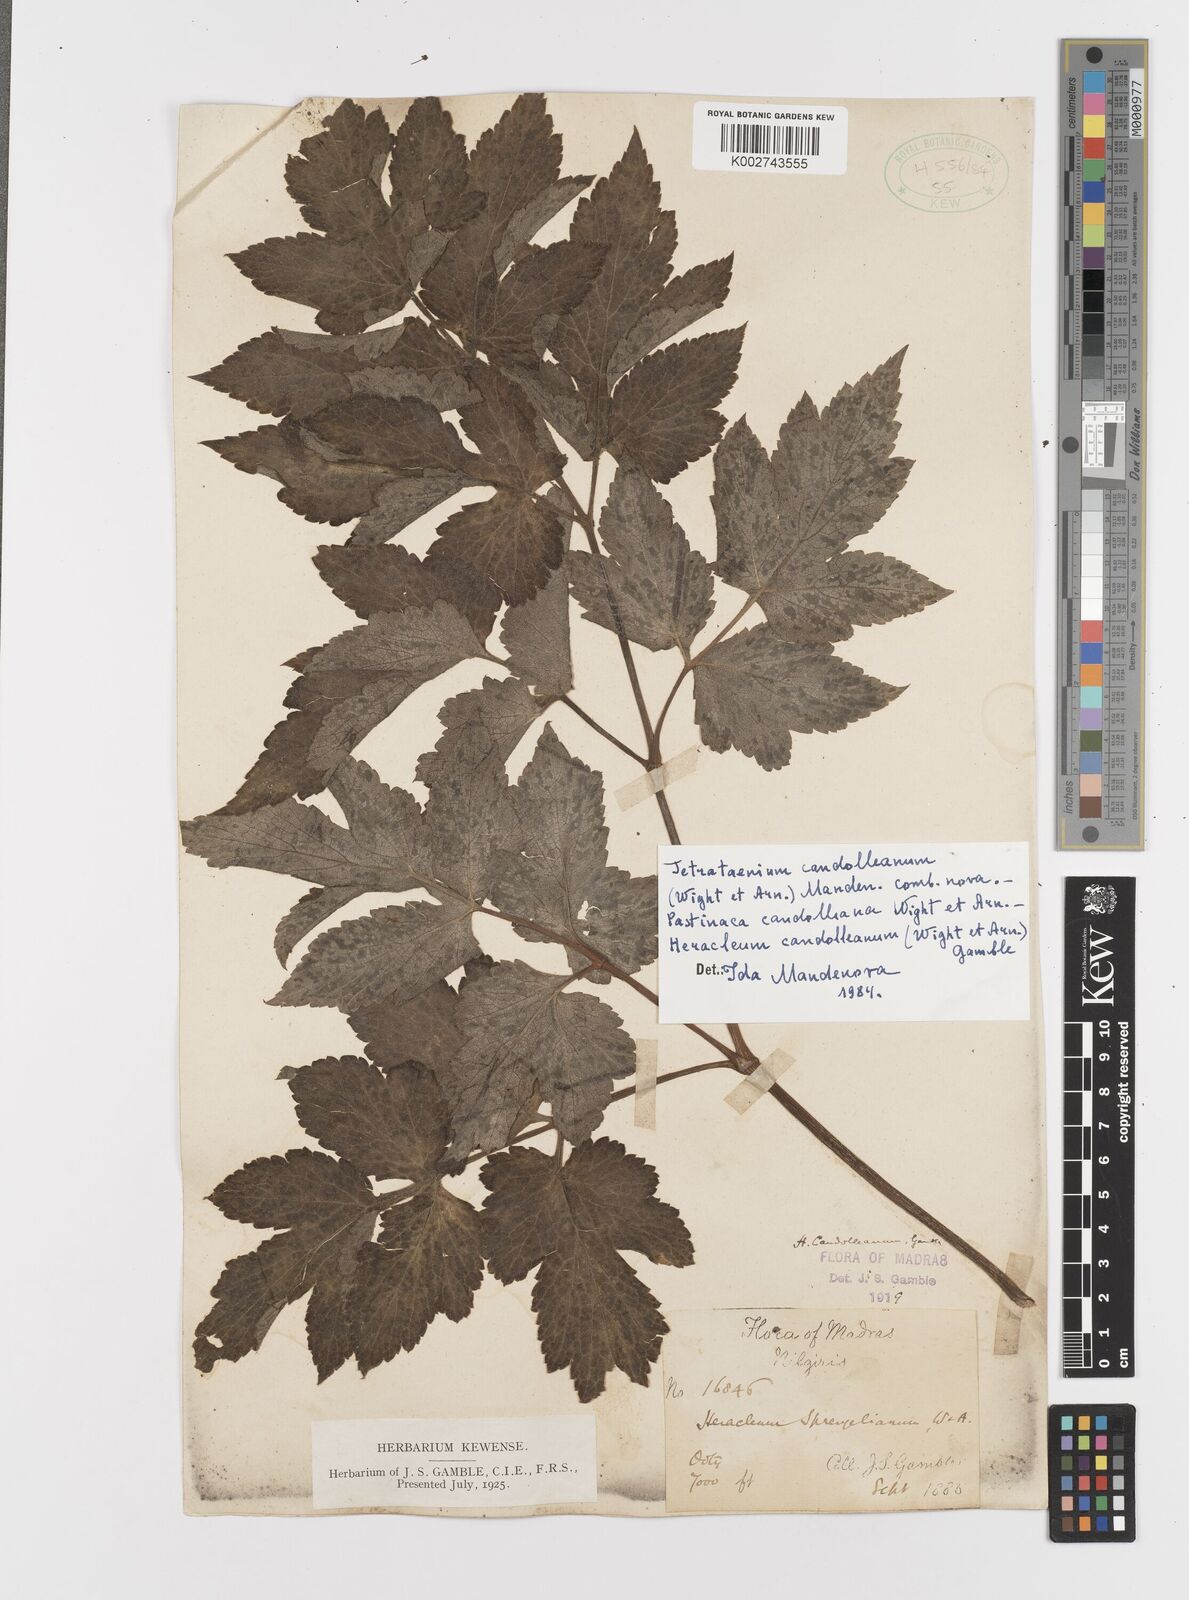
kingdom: Plantae
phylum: Tracheophyta
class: Magnoliopsida
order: Apiales
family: Apiaceae
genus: Tetrataenium
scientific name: Tetrataenium rigens
